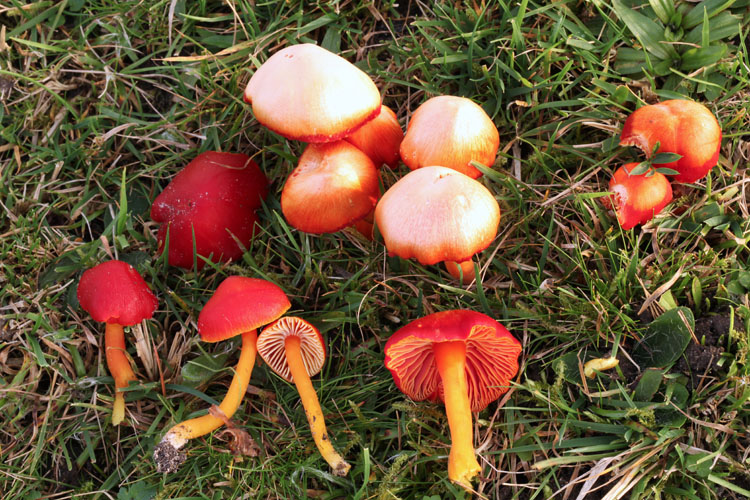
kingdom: Fungi
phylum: Basidiomycota
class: Agaricomycetes
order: Agaricales
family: Hygrophoraceae
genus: Hygrocybe
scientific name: Hygrocybe coccinea
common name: cinnober-vokshat
